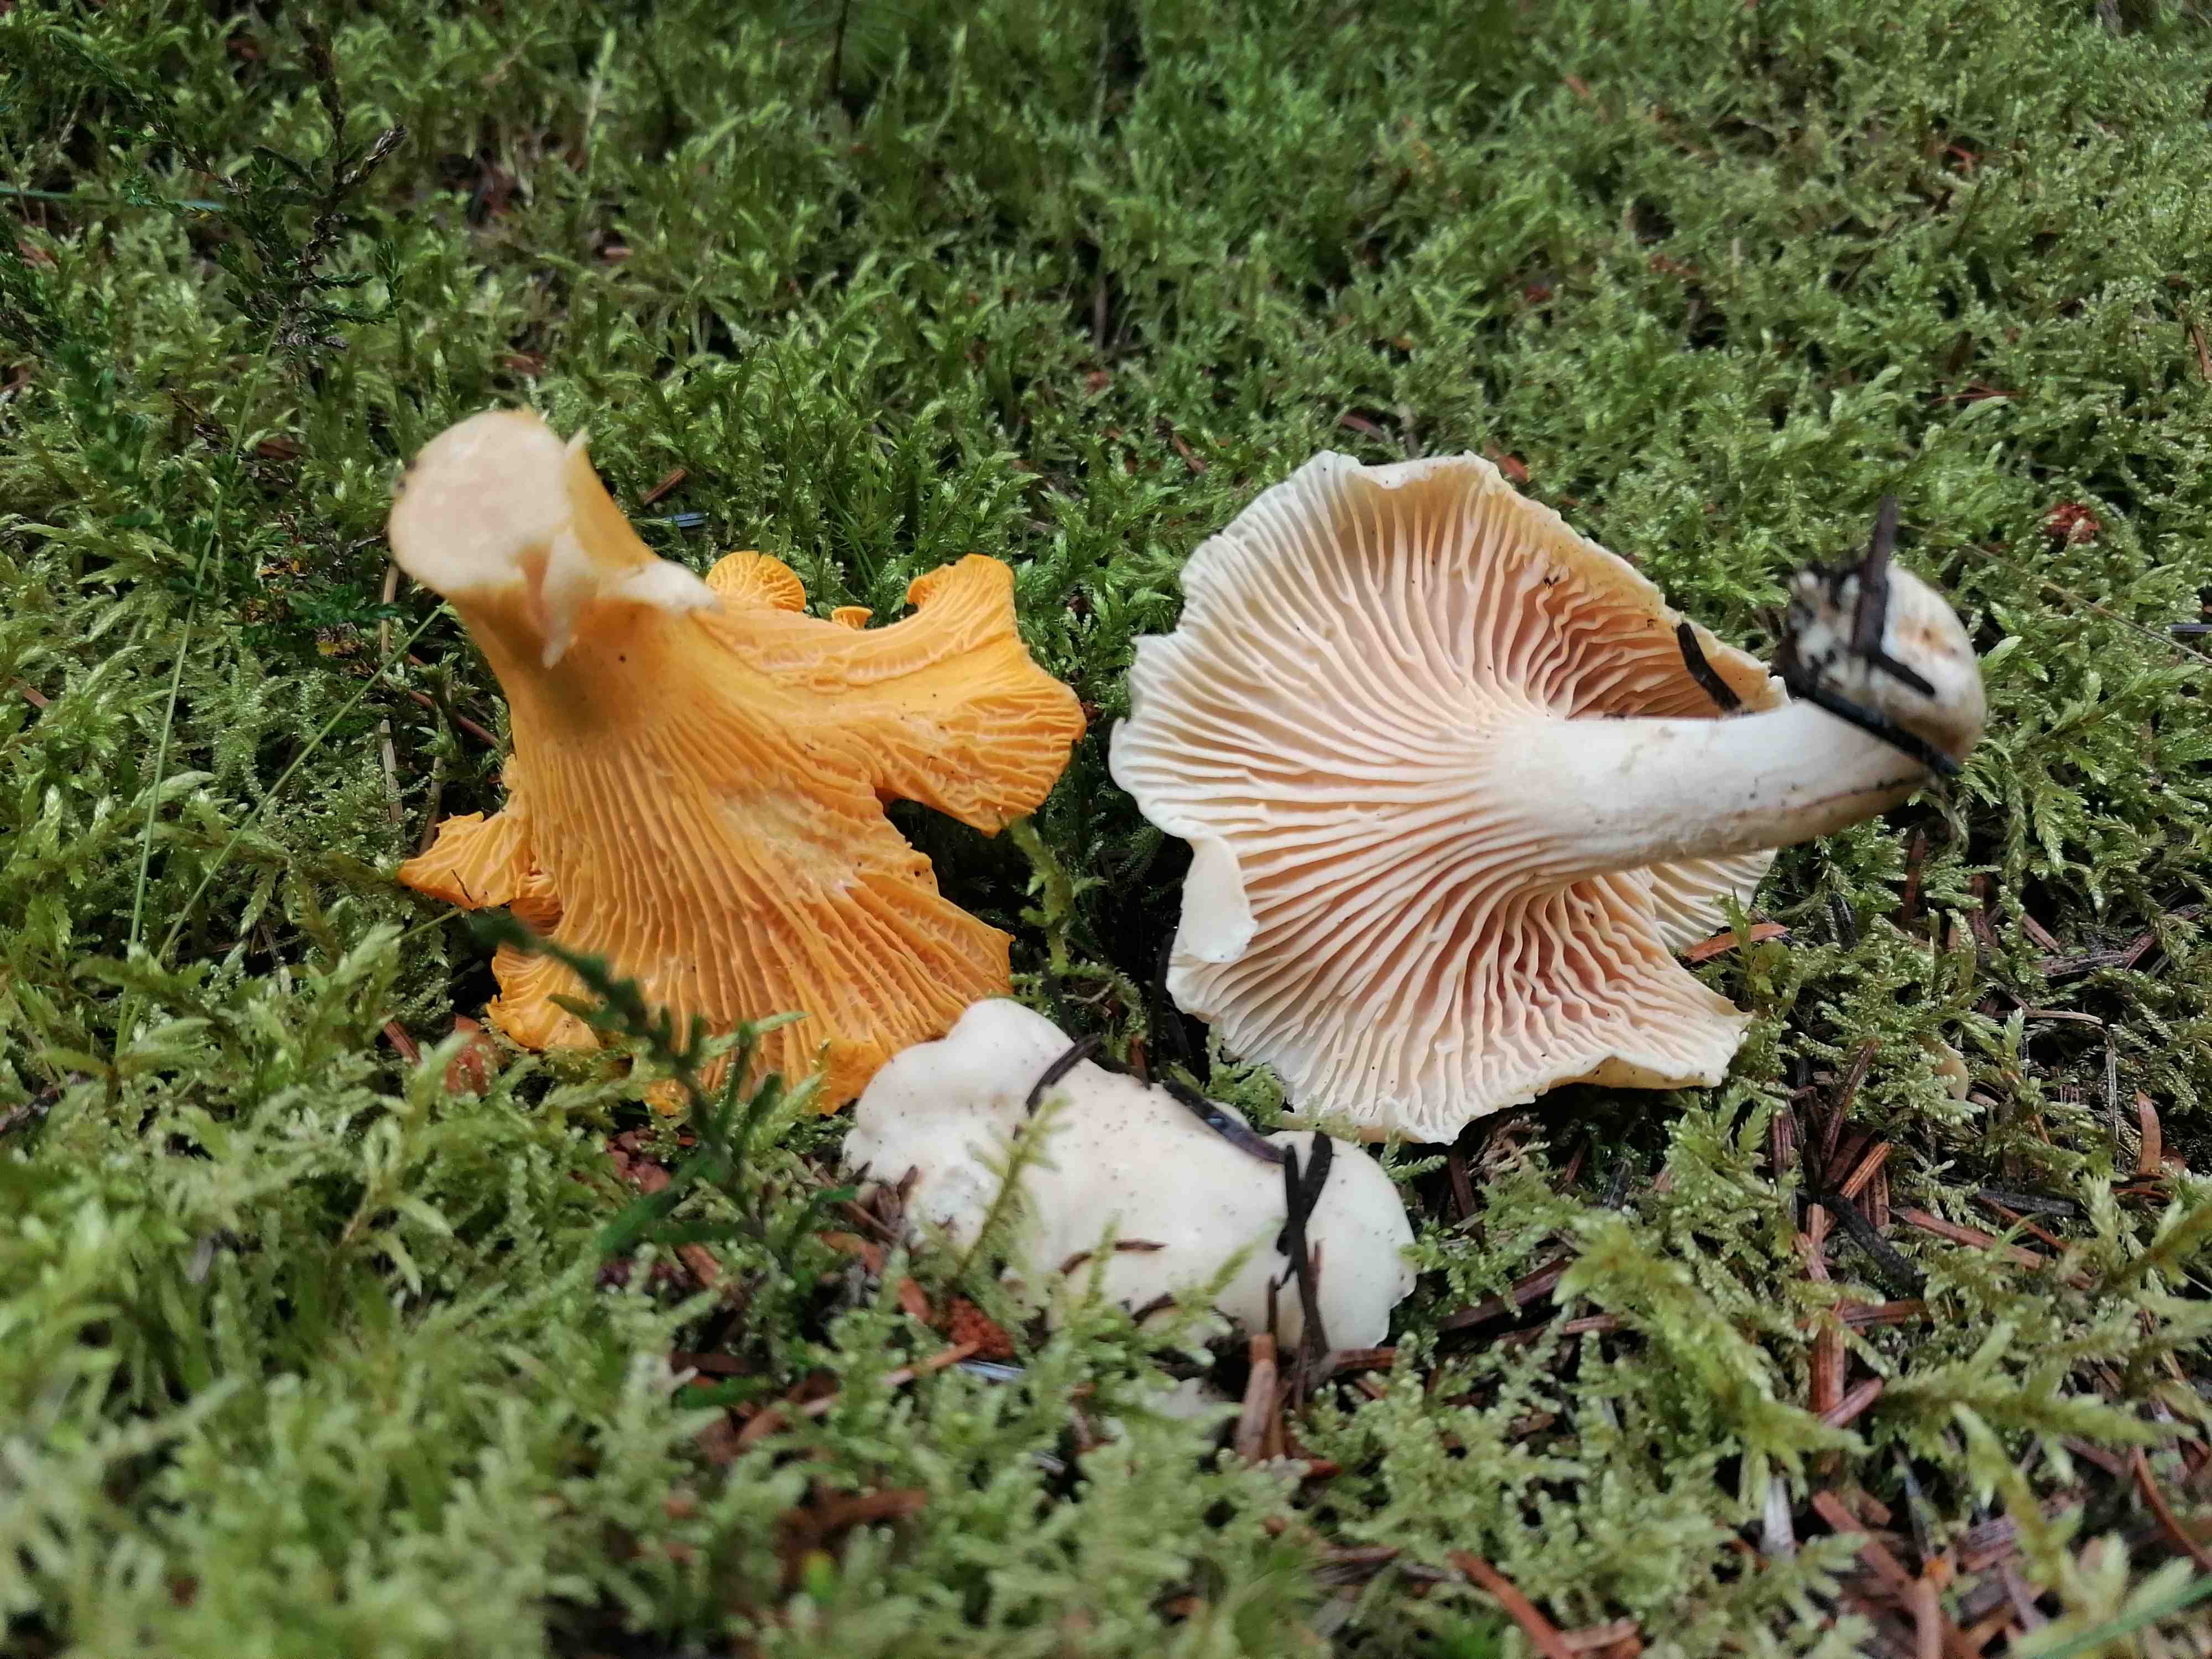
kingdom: Fungi
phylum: Basidiomycota
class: Agaricomycetes
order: Cantharellales
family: Hydnaceae
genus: Cantharellus
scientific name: Cantharellus cibarius
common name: almindelig kantarel
